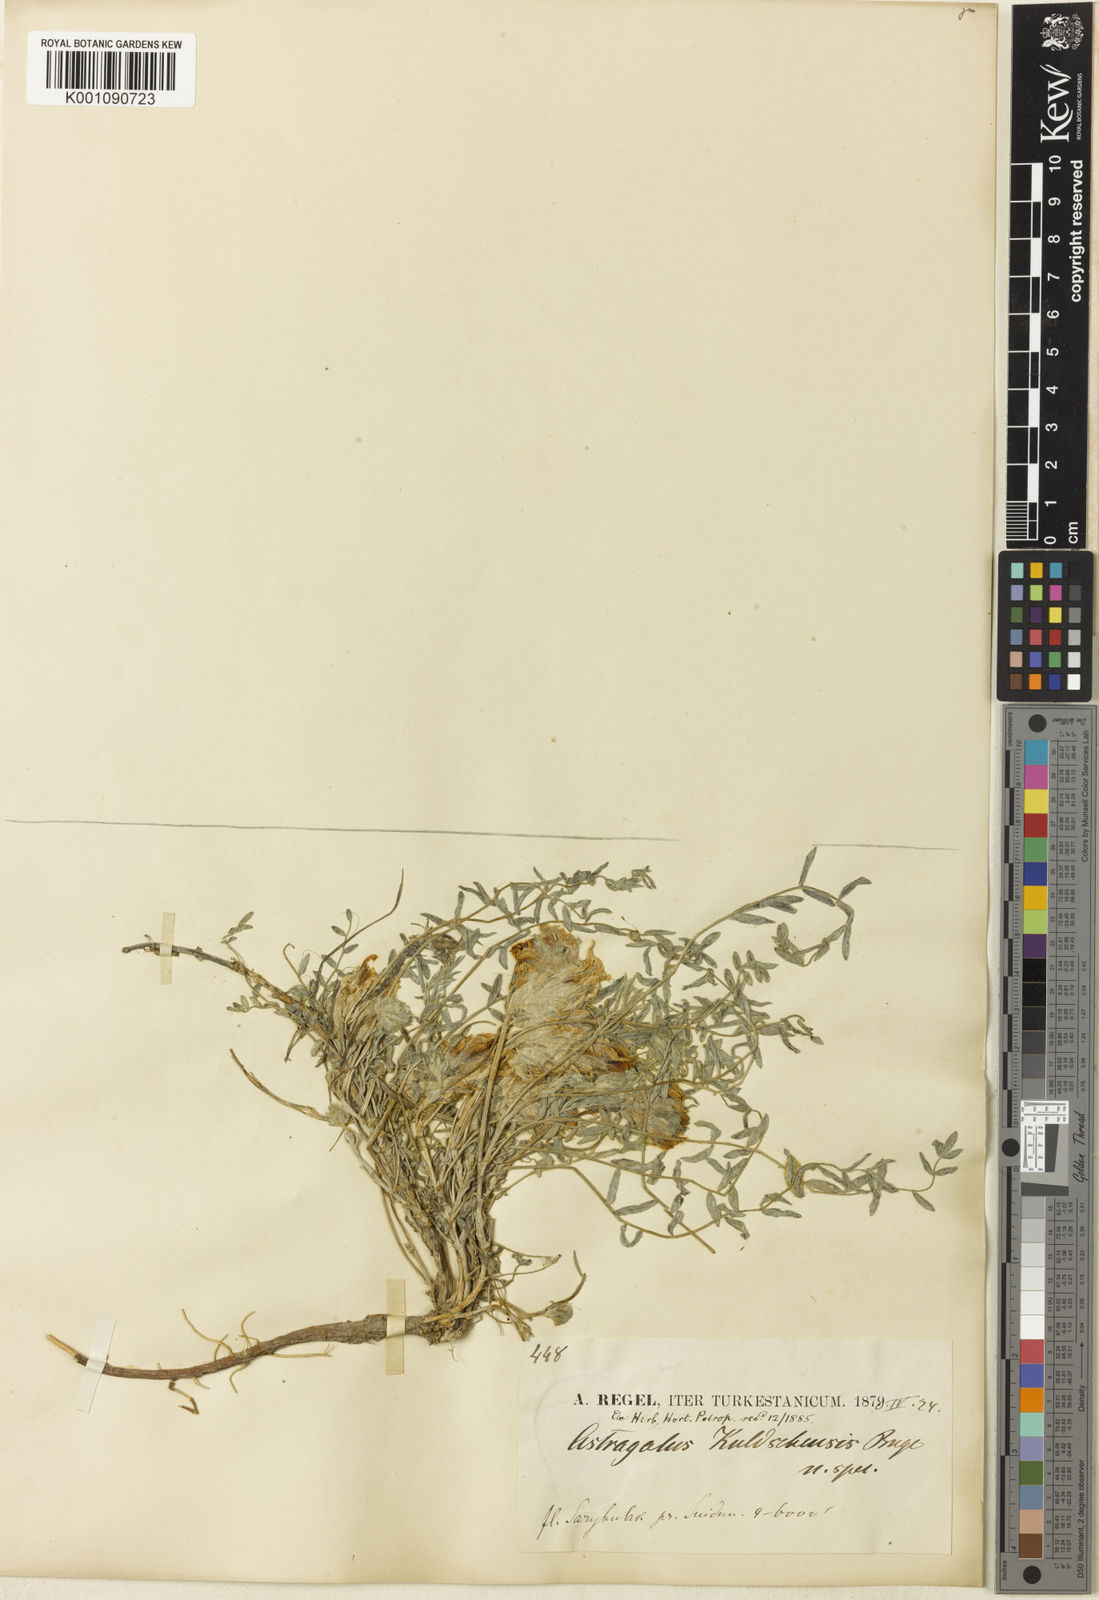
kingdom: Plantae
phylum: Tracheophyta
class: Magnoliopsida
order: Fabales
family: Fabaceae
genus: Astragalus
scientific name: Astragalus
